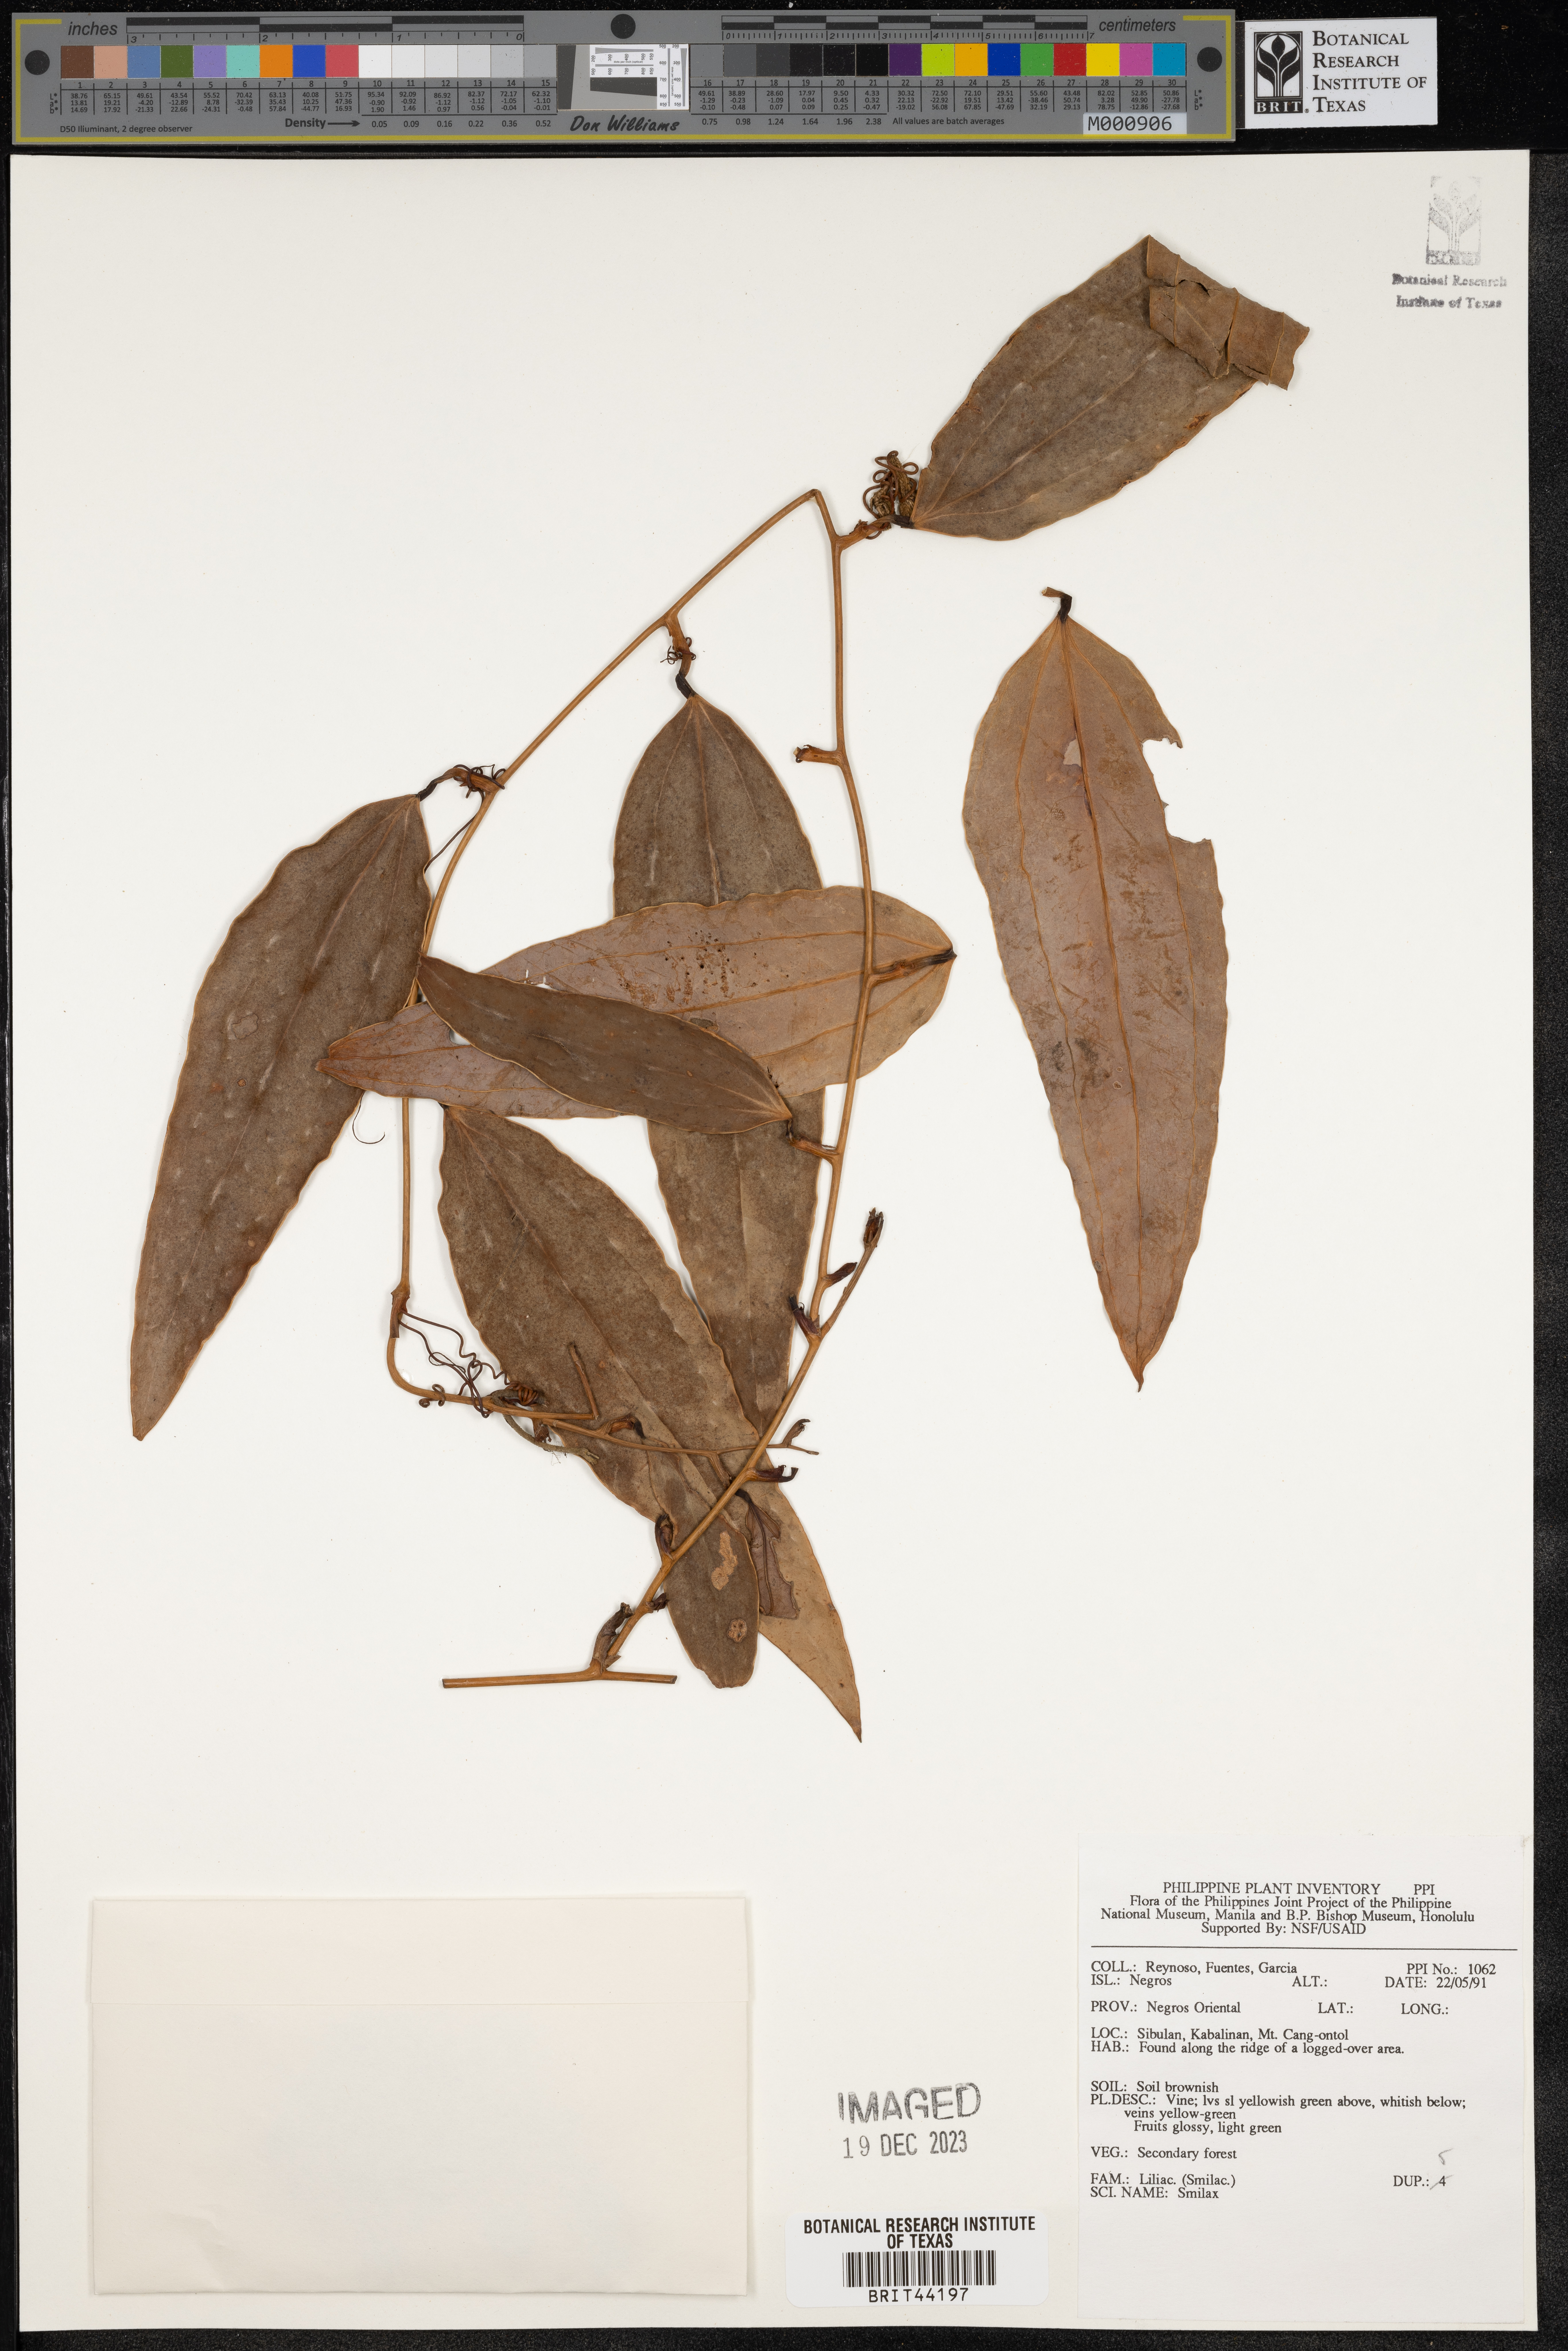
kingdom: Plantae
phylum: Tracheophyta
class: Liliopsida
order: Liliales
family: Smilacaceae
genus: Smilax
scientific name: Smilax
